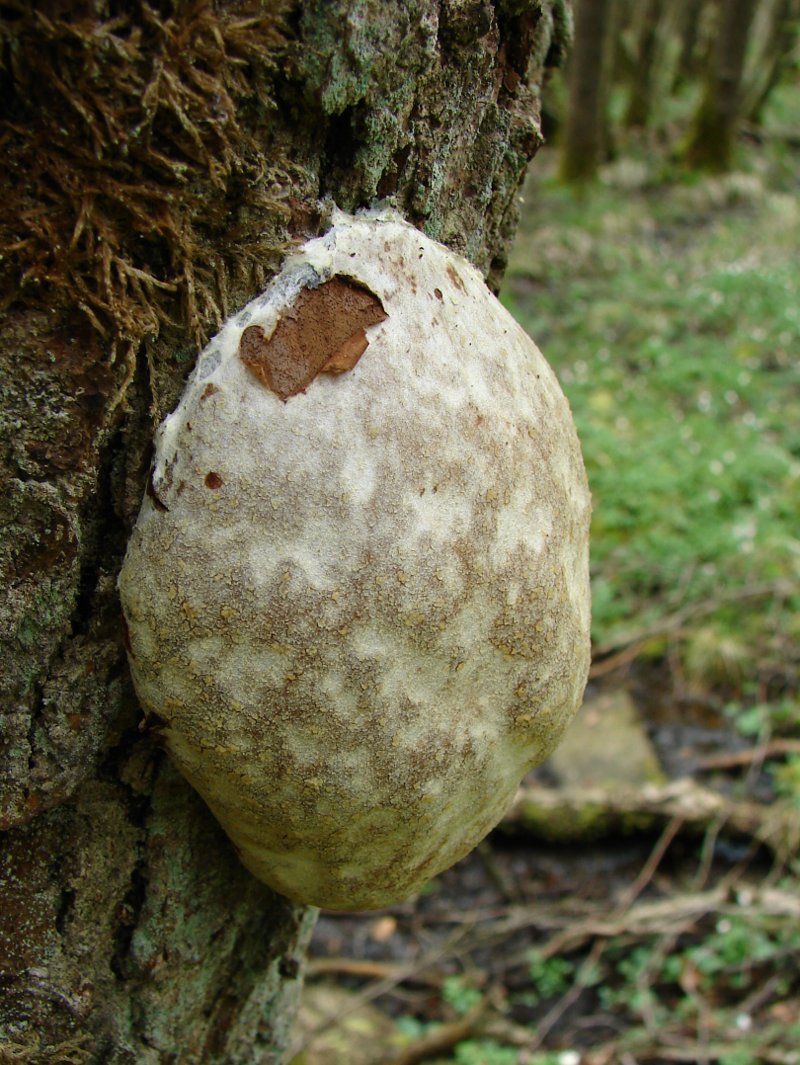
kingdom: Protozoa
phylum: Mycetozoa
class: Myxomycetes
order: Cribrariales
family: Tubiferaceae
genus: Reticularia
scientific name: Reticularia lycoperdon
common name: skinnende støvpude
